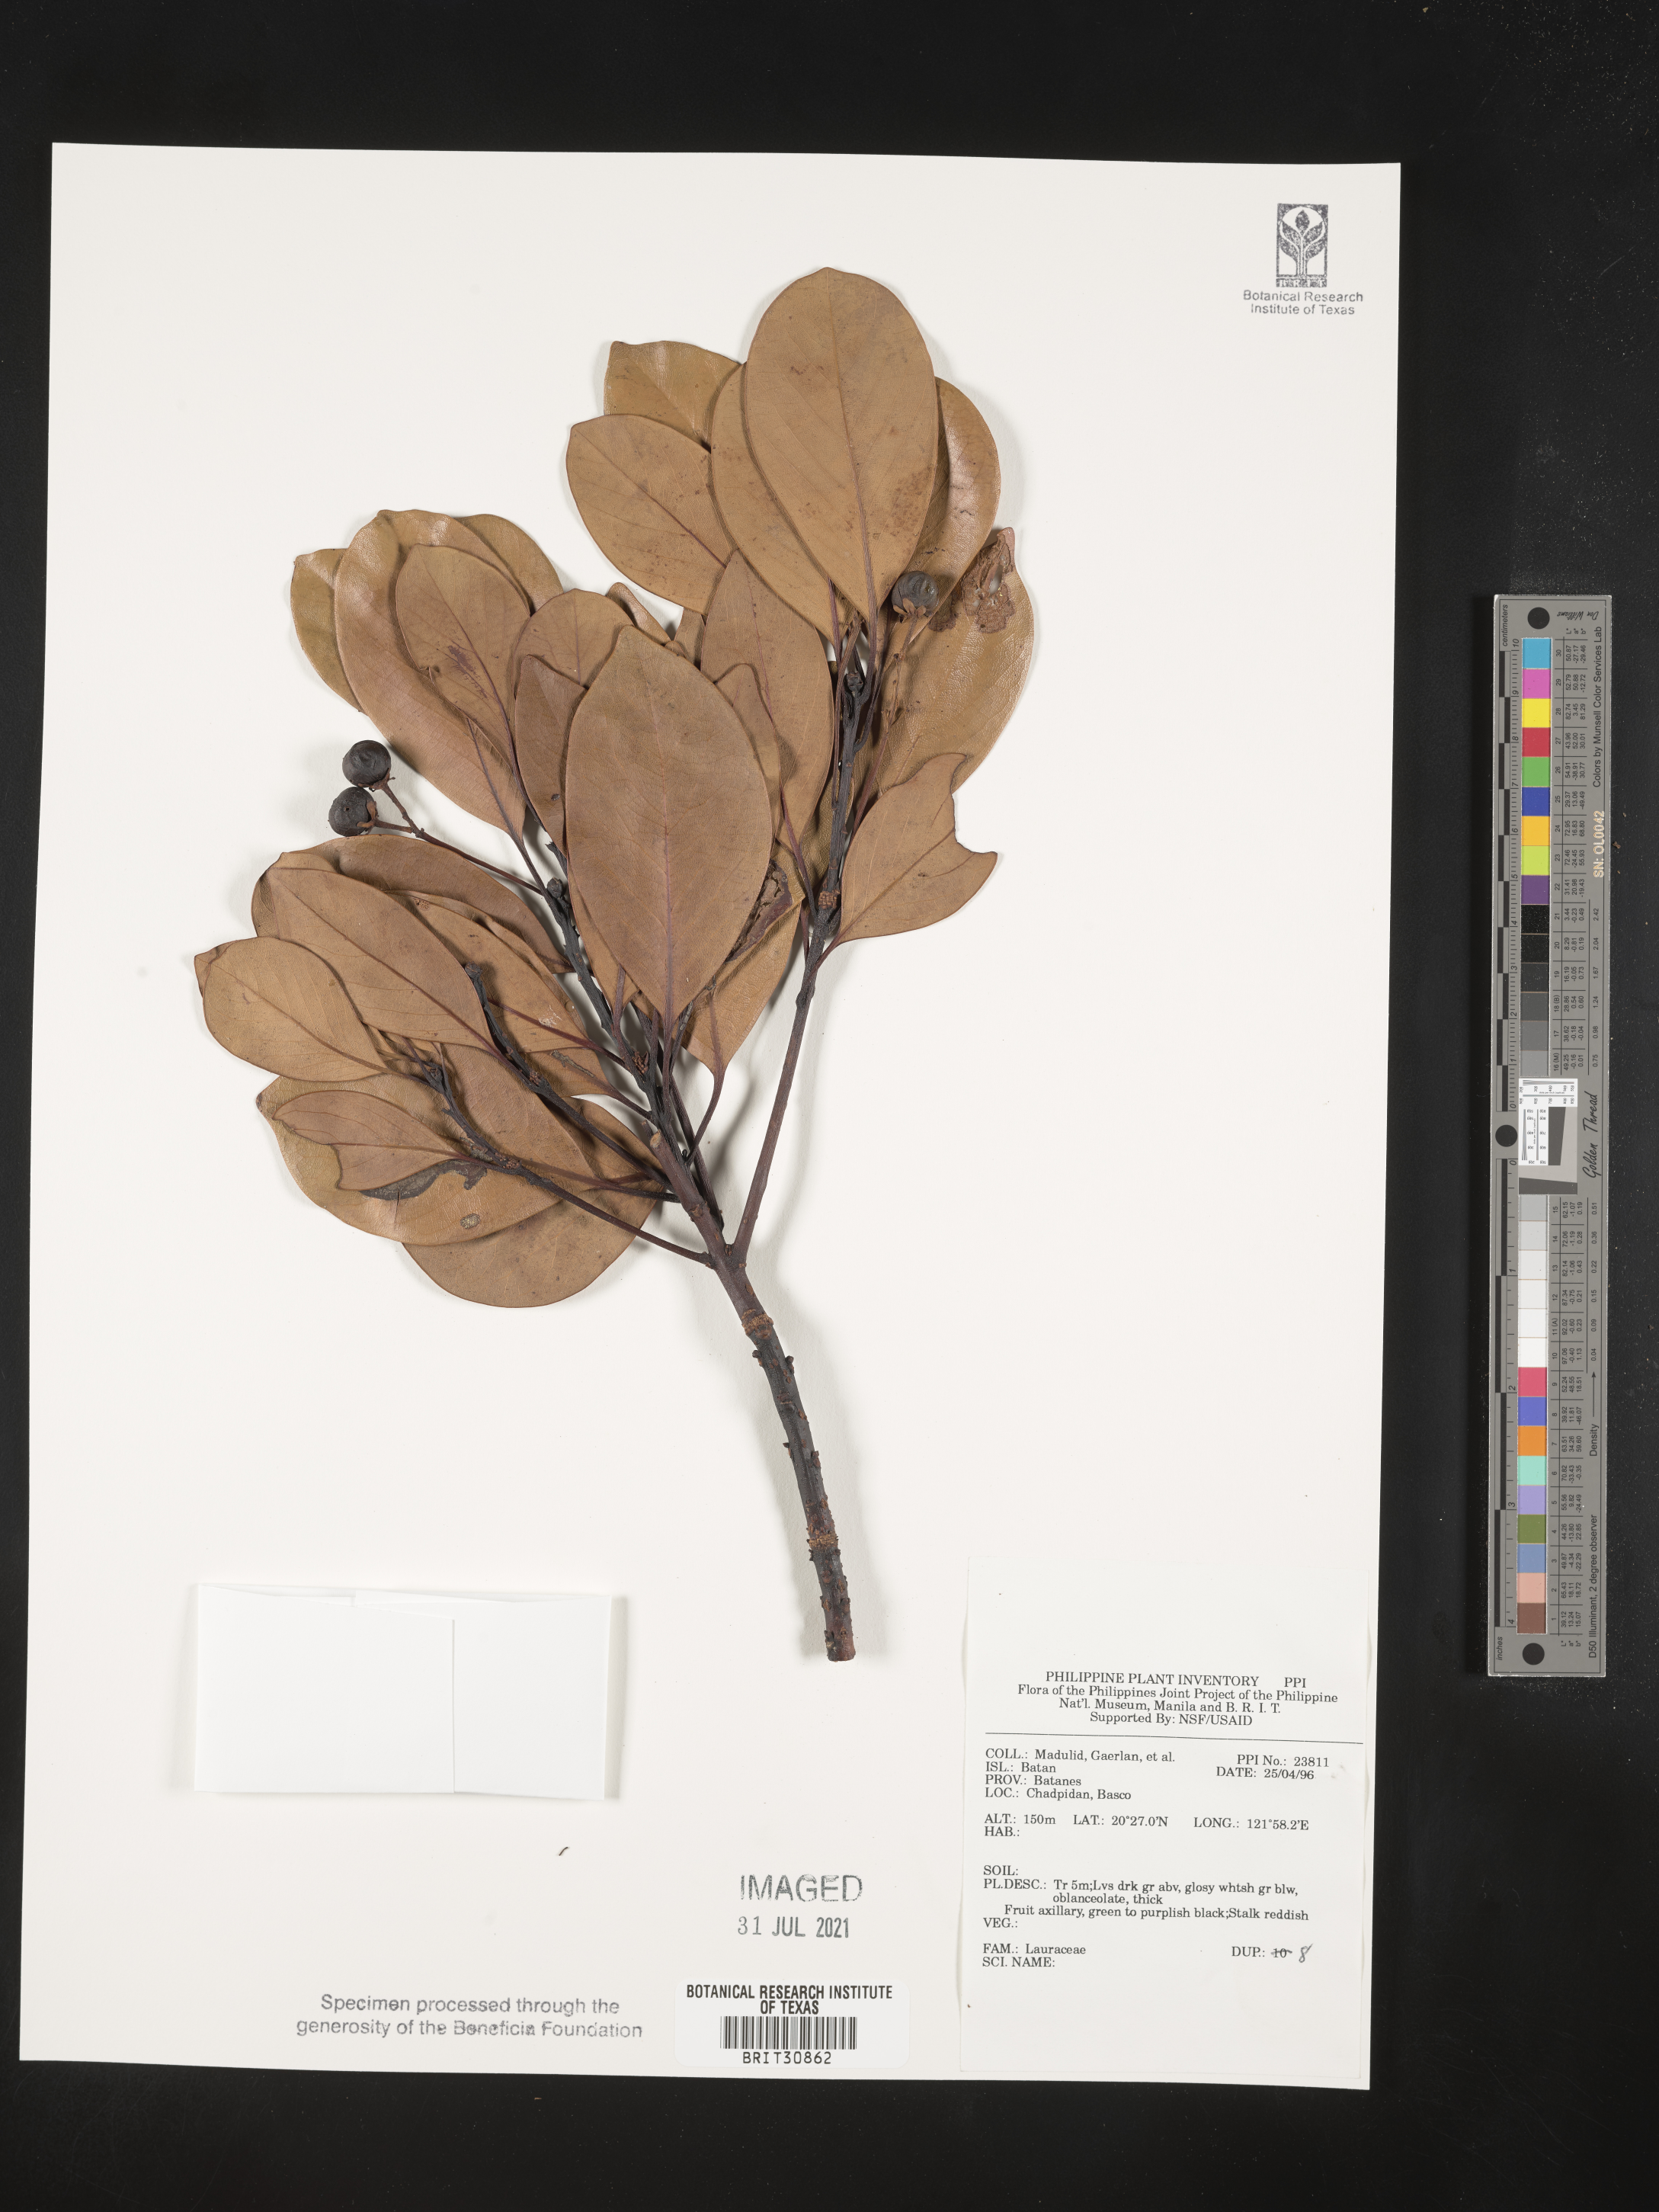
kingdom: Plantae
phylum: Tracheophyta
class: Magnoliopsida
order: Laurales
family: Lauraceae
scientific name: Lauraceae
